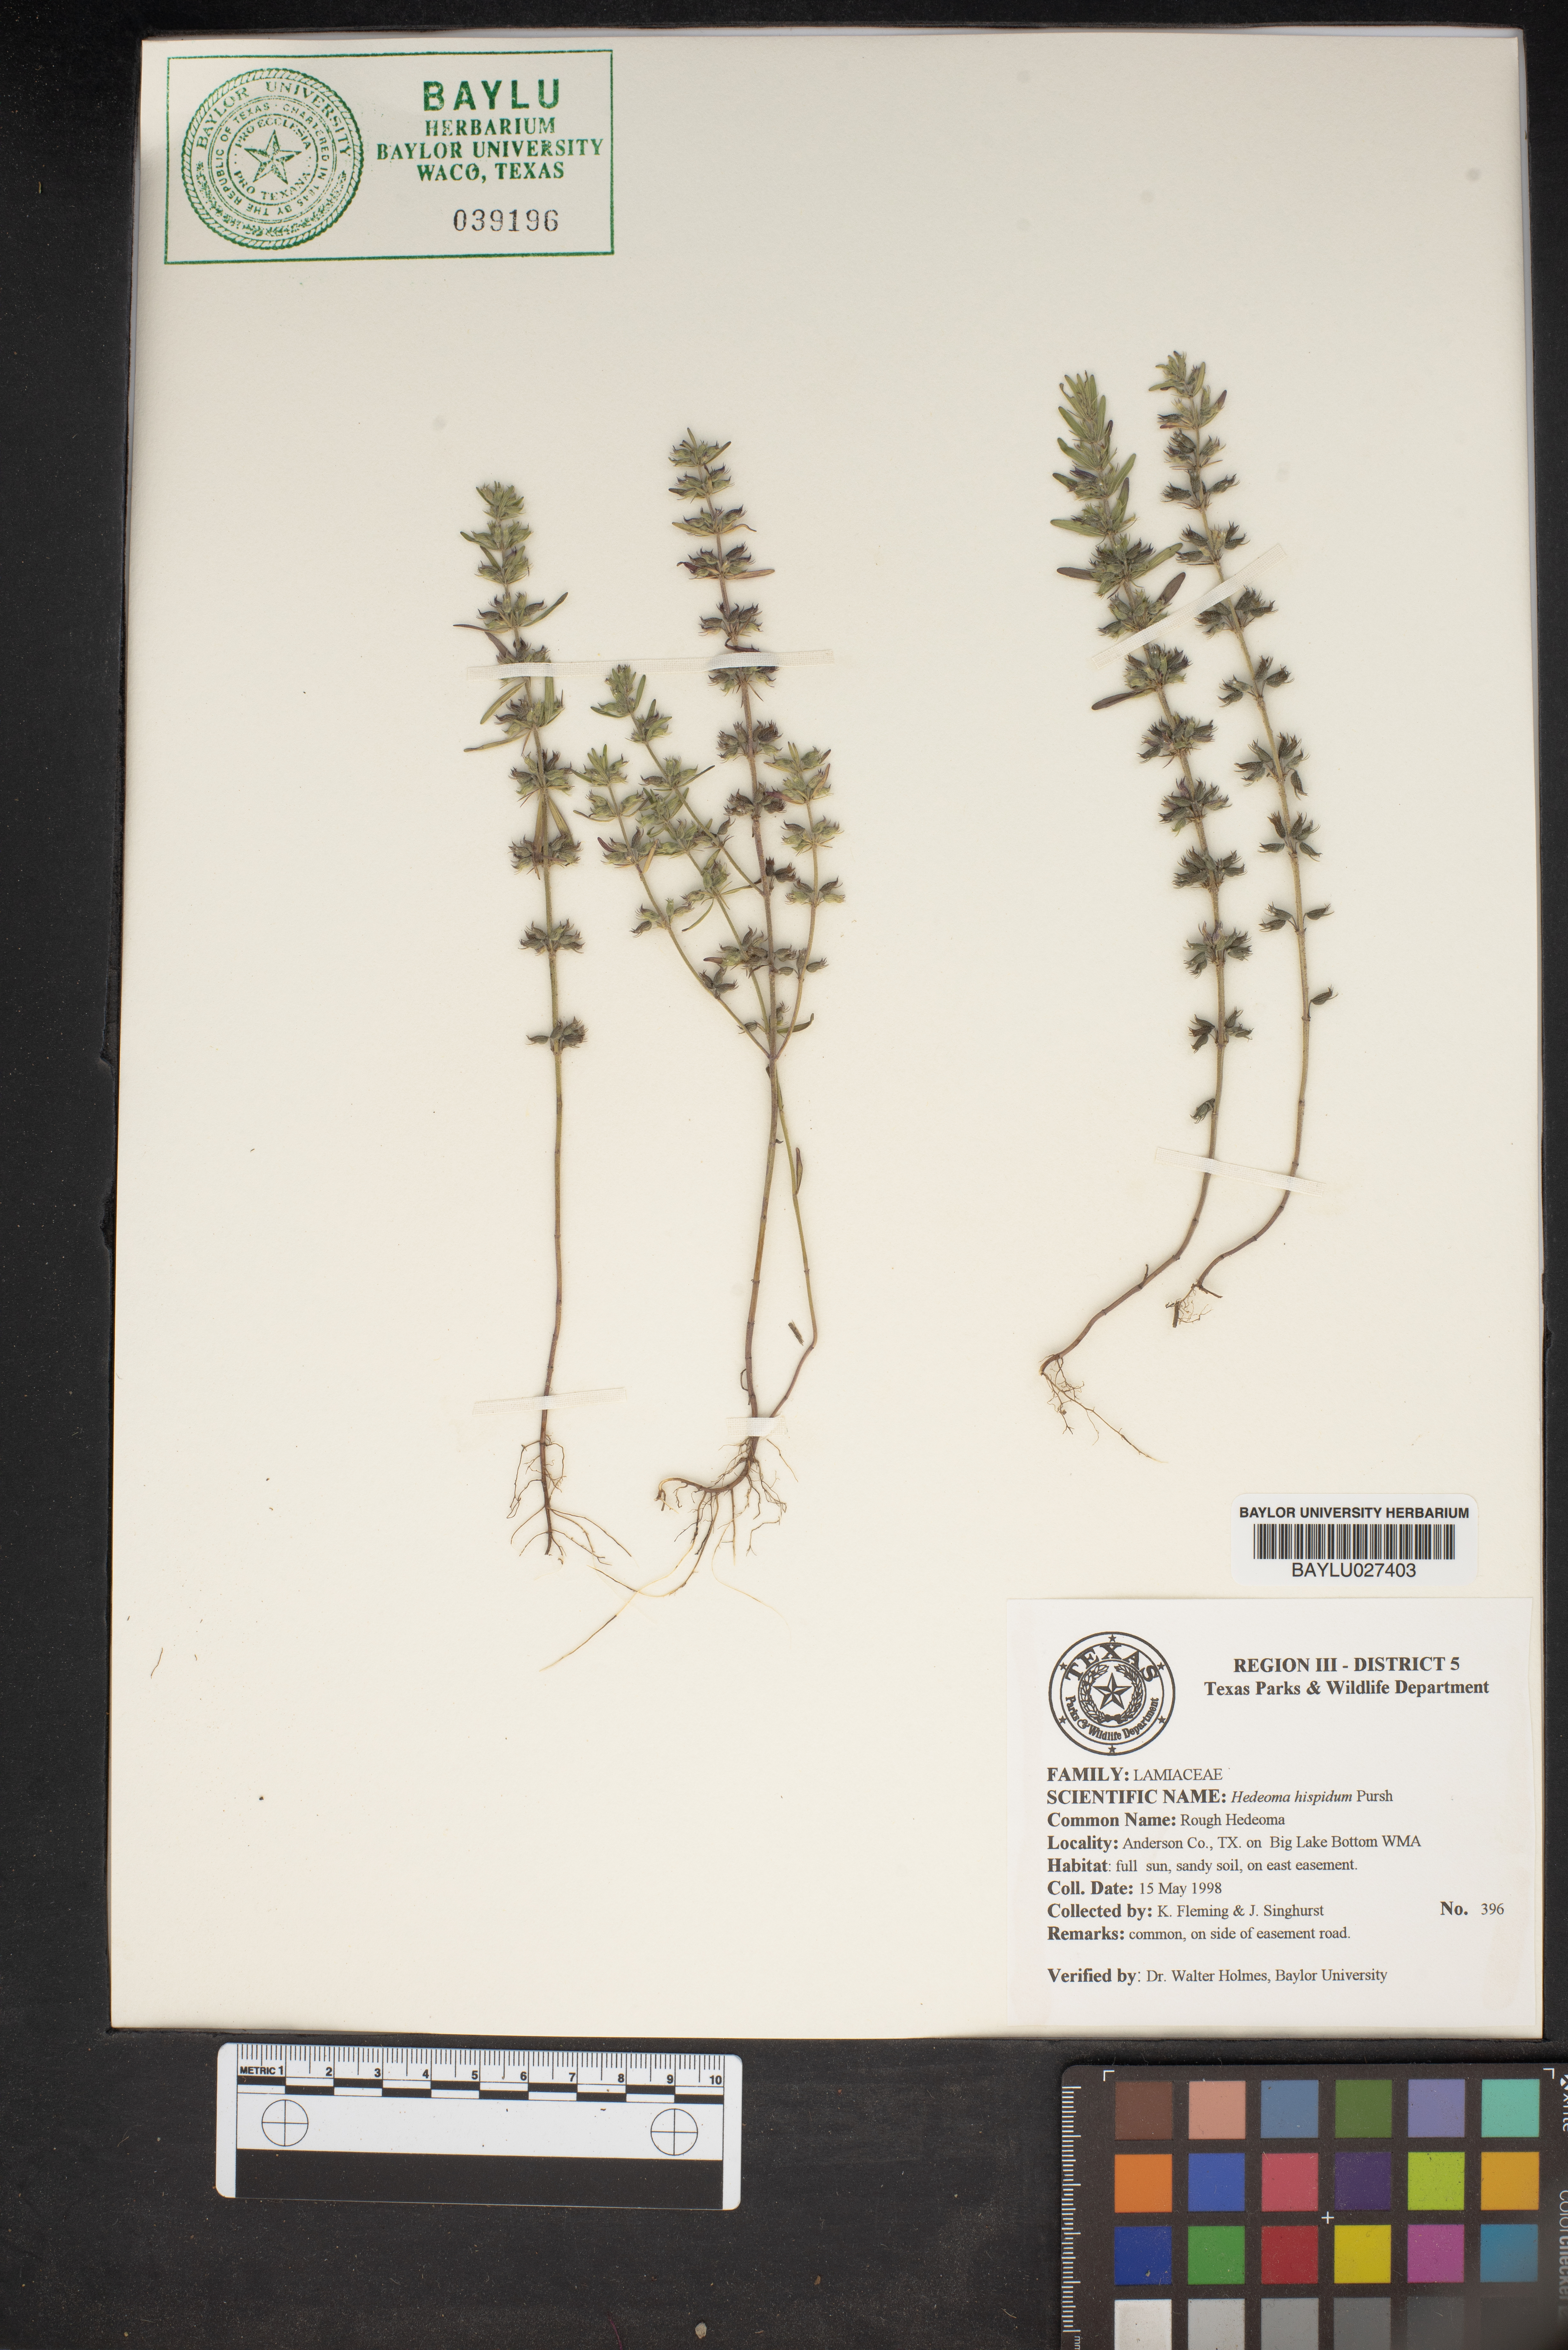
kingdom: Plantae
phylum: Tracheophyta
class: Magnoliopsida
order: Lamiales
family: Lamiaceae
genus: Hedeoma
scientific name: Hedeoma hispida
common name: Mock pennyroyal
